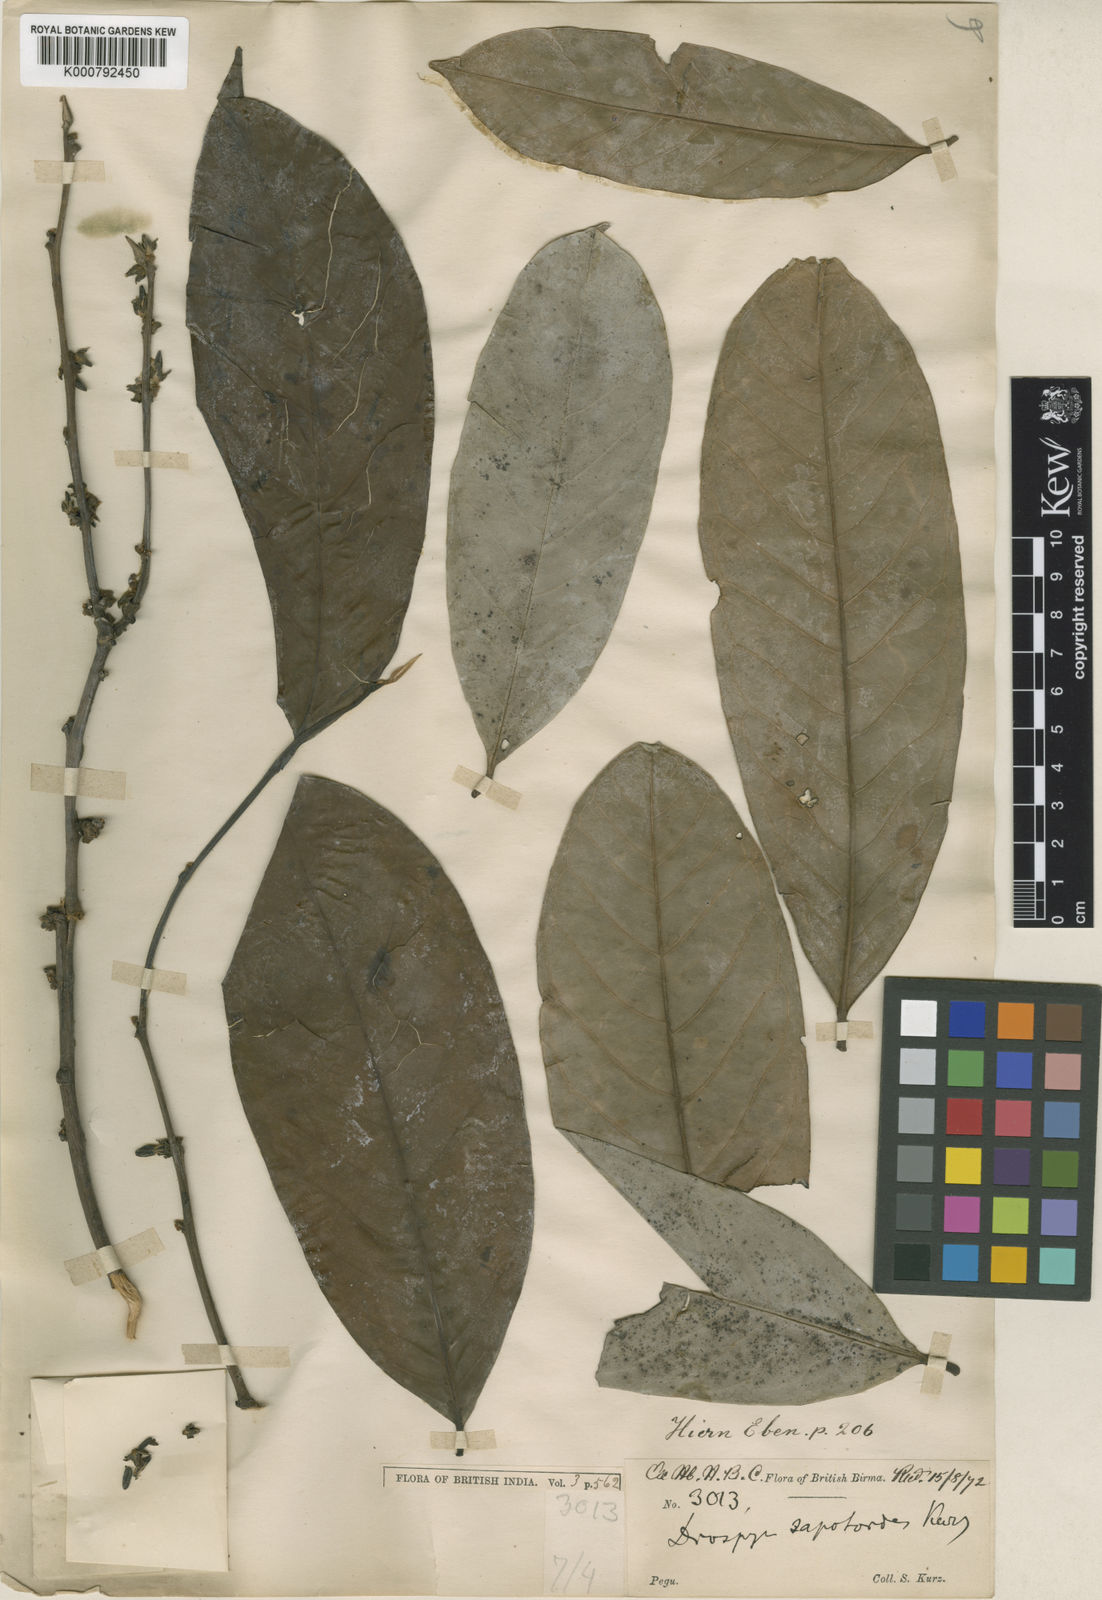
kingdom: Plantae
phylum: Tracheophyta
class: Magnoliopsida
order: Ericales
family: Ebenaceae
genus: Diospyros
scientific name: Diospyros oblonga
